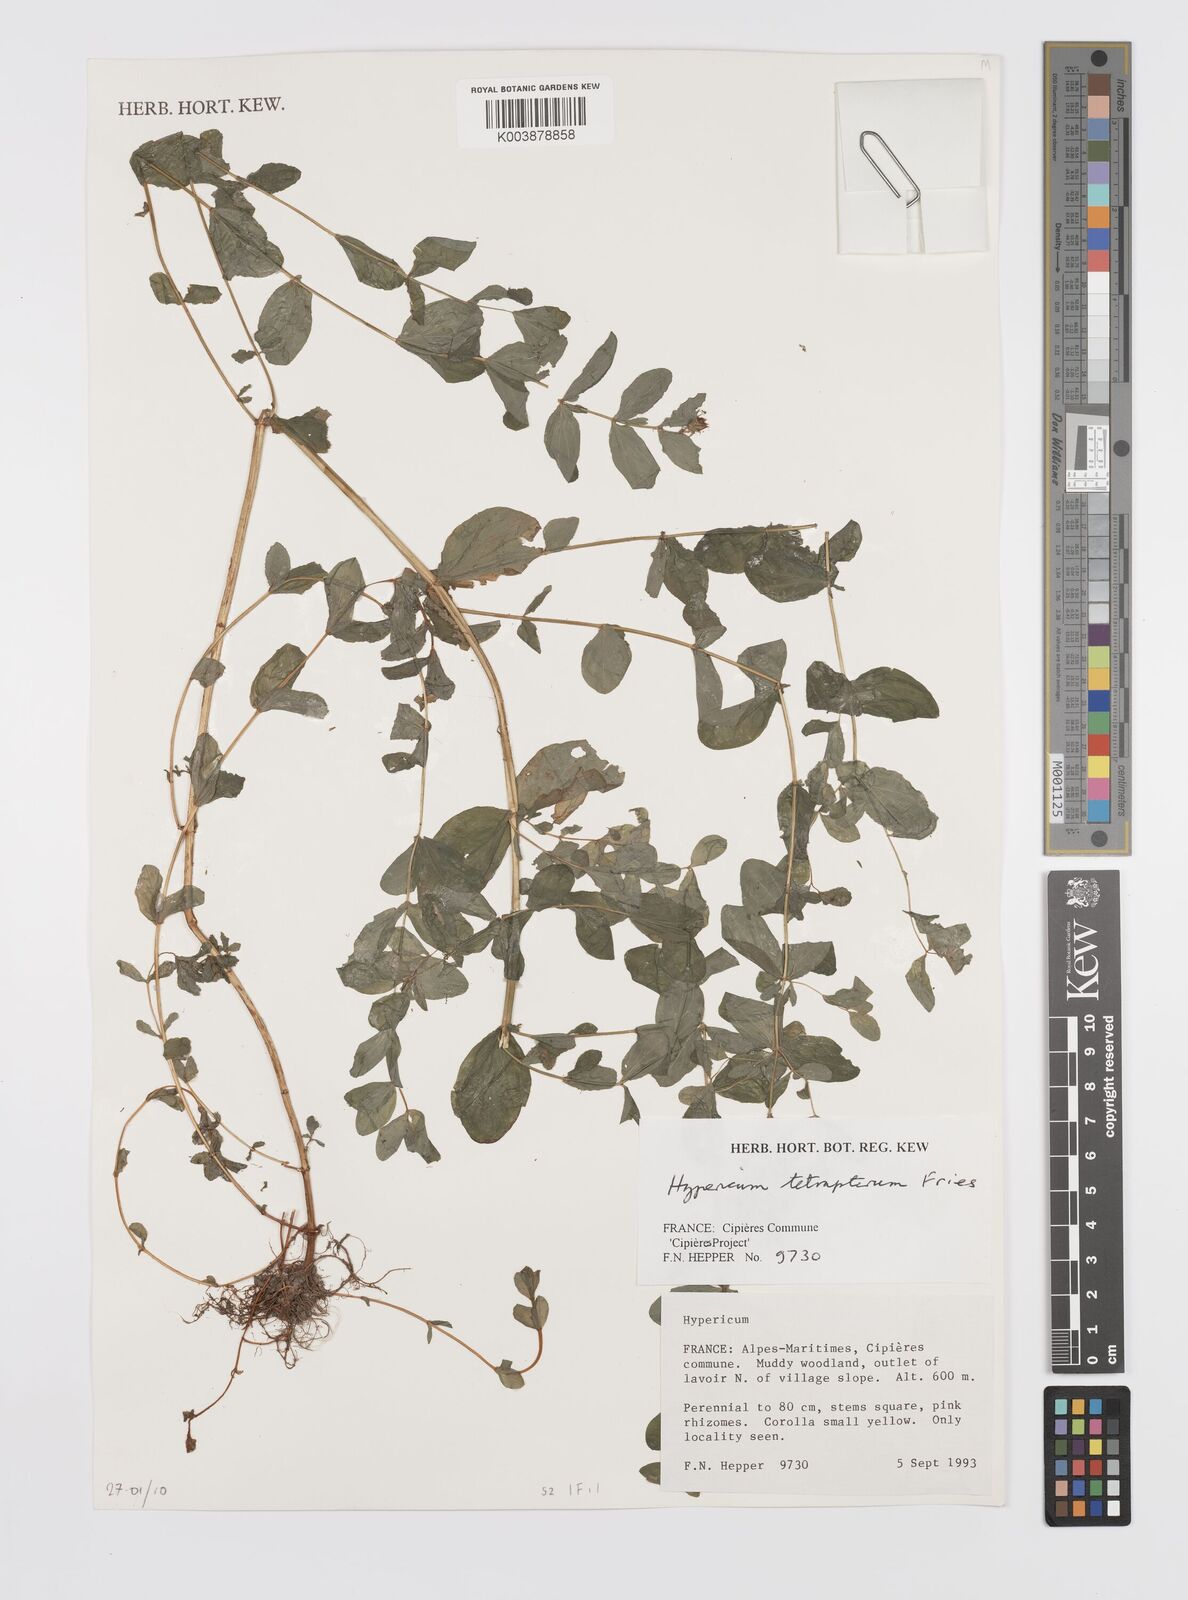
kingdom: Plantae
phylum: Tracheophyta
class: Magnoliopsida
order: Malpighiales
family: Hypericaceae
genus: Hypericum
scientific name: Hypericum tetrapterum
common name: Square-stalked st. john's-wort
